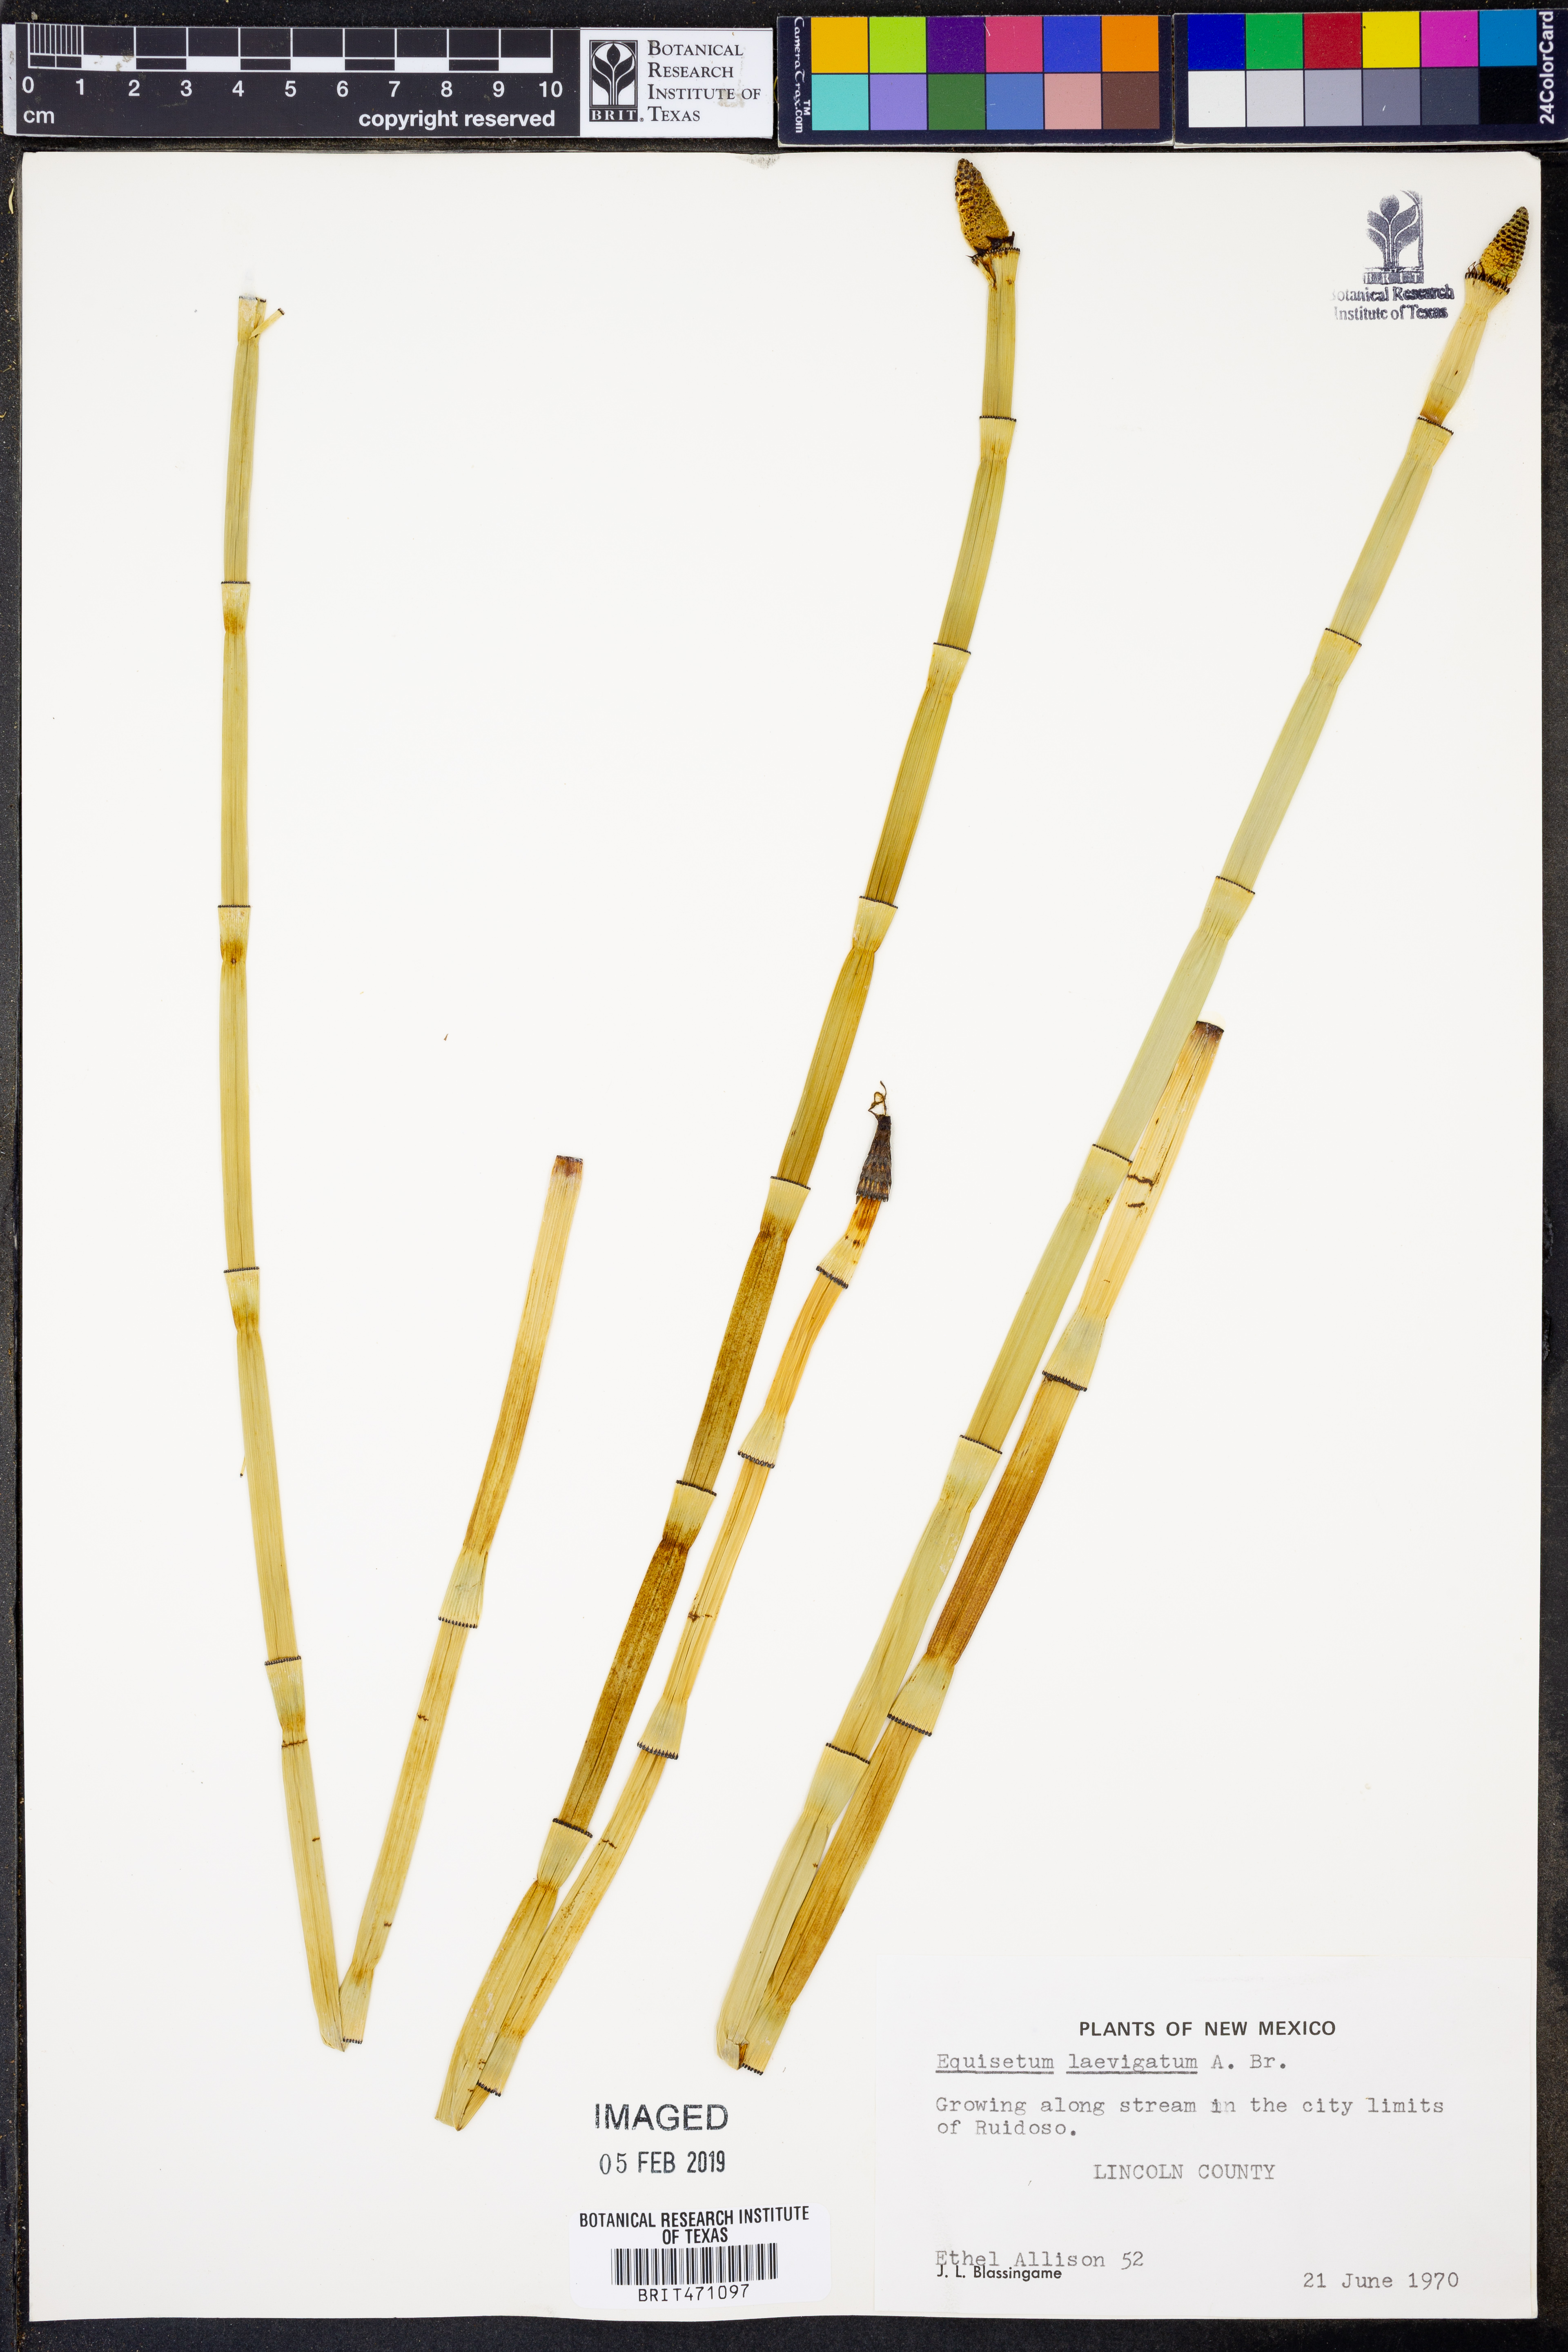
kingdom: Plantae
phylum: Tracheophyta
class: Polypodiopsida
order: Equisetales
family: Equisetaceae
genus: Equisetum
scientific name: Equisetum laevigatum
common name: Smooth scouring-rush
